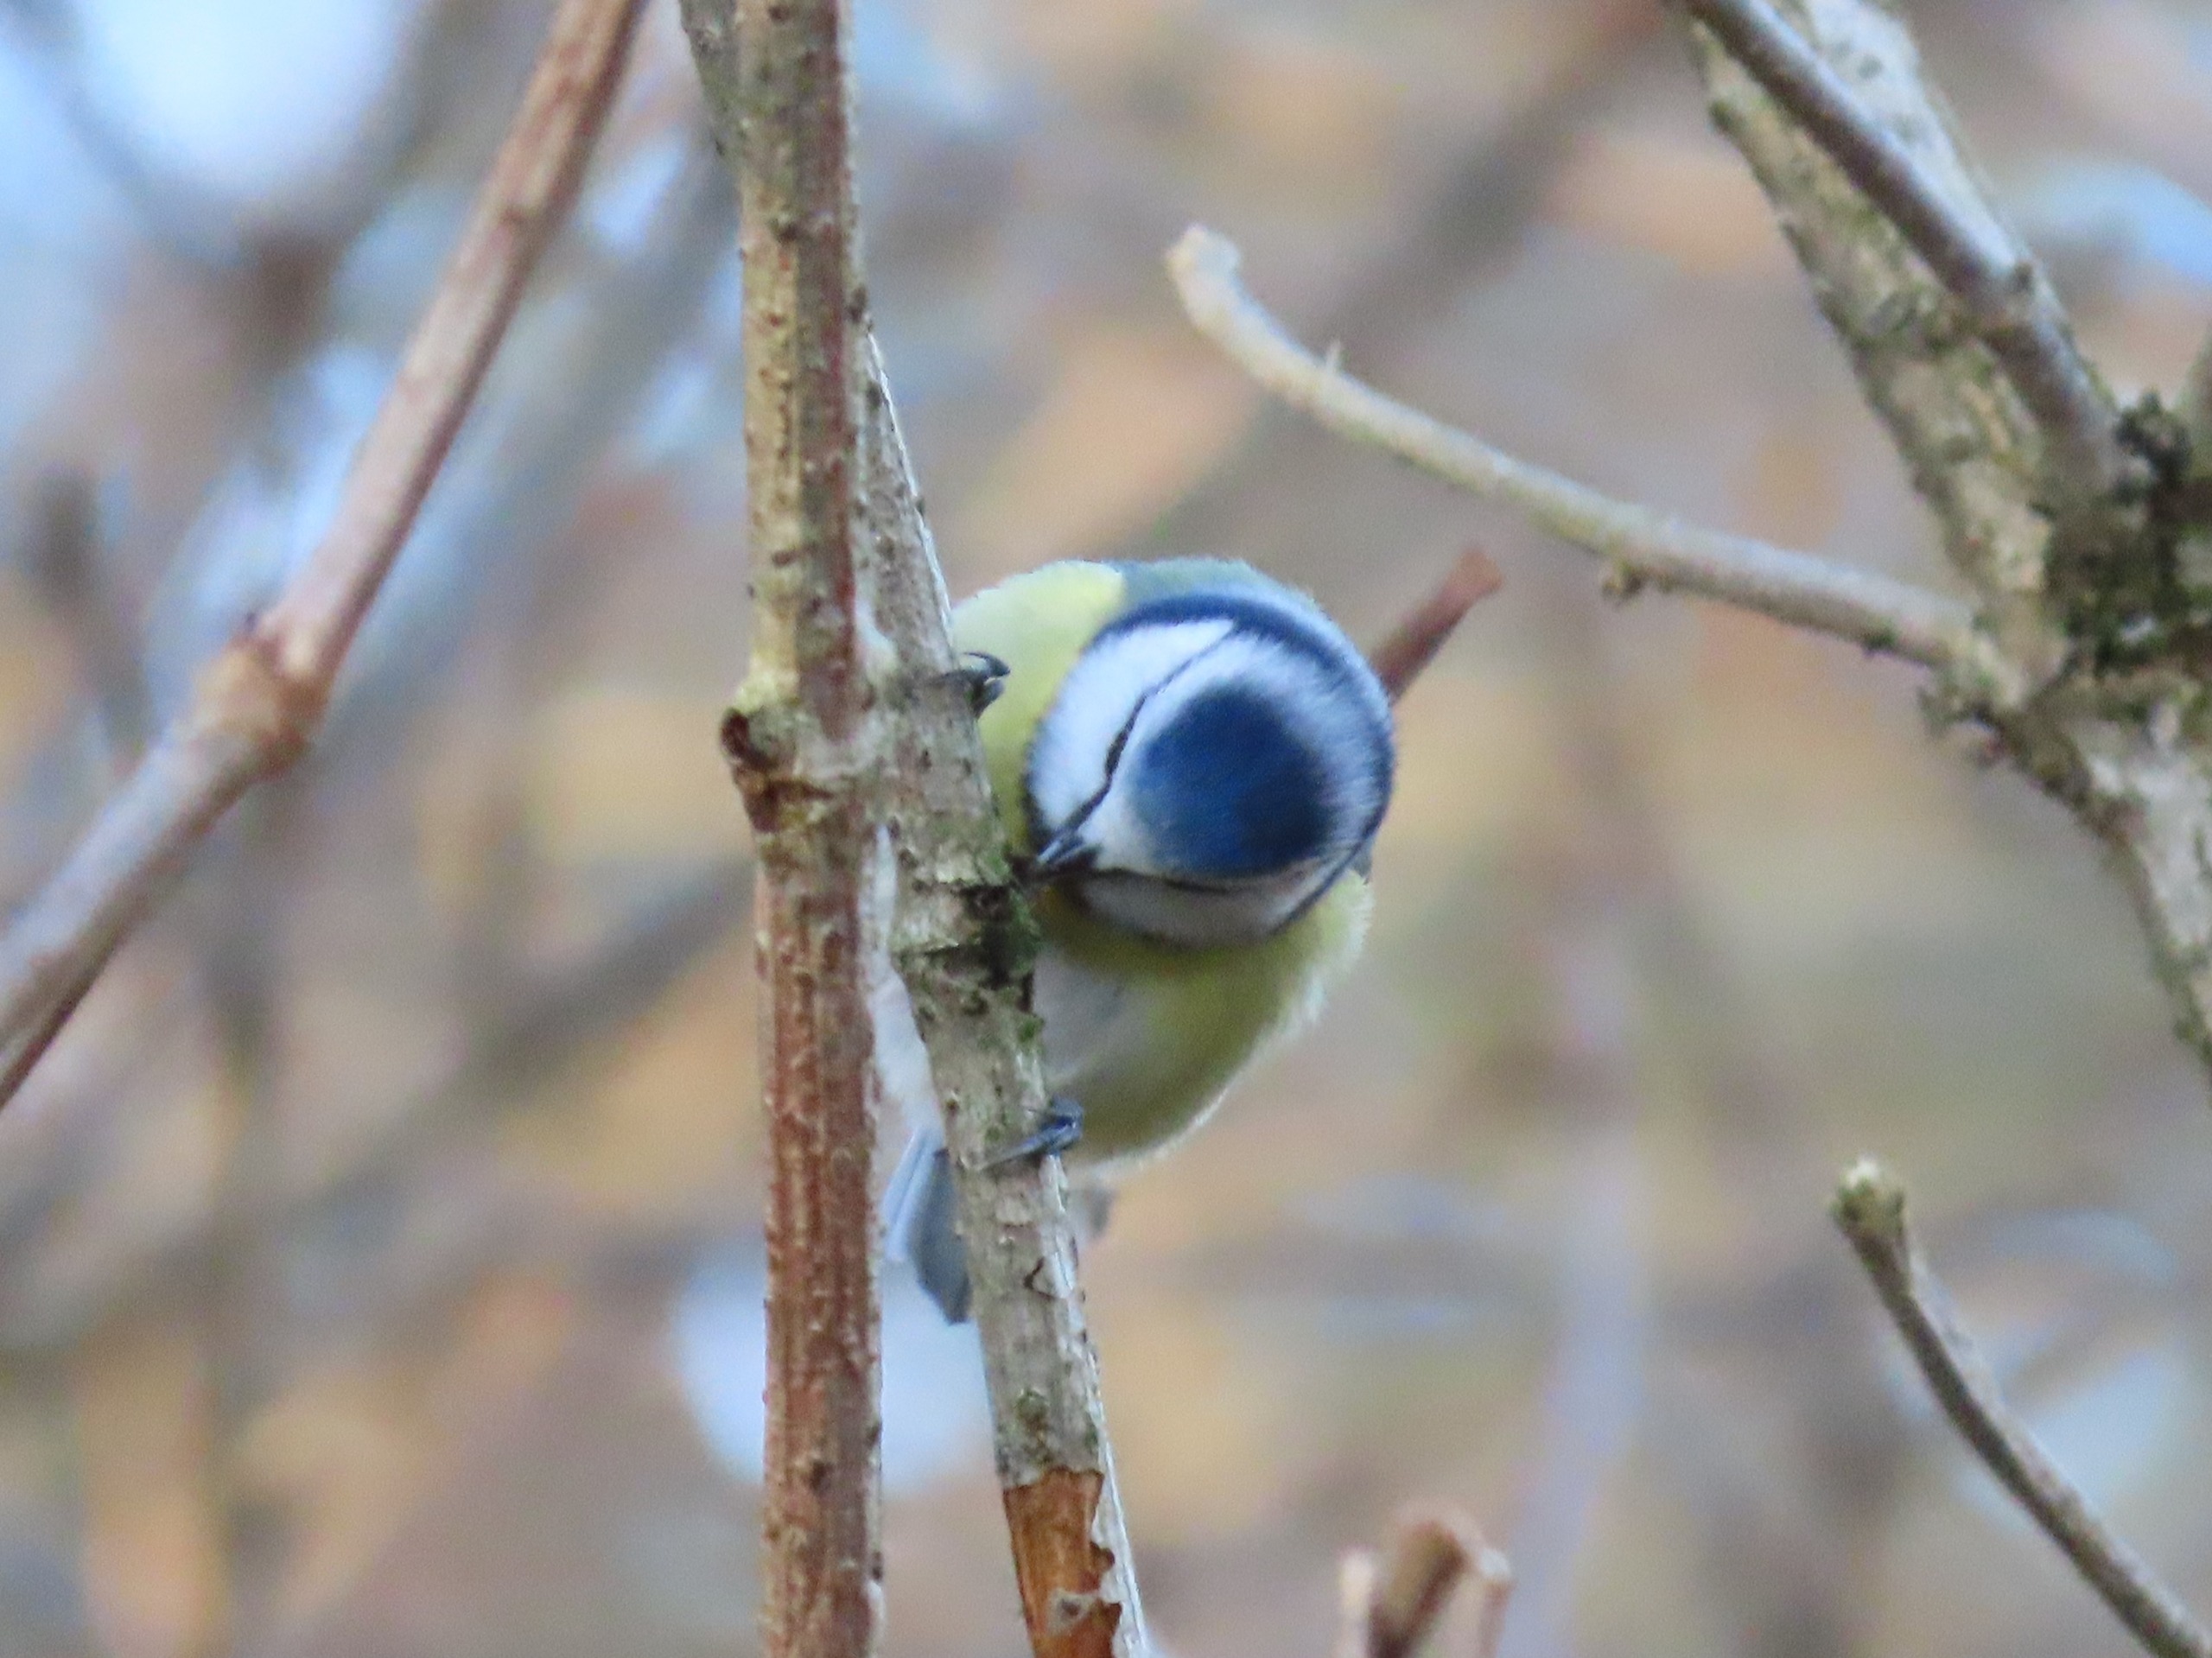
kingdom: Animalia
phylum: Chordata
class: Aves
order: Passeriformes
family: Paridae
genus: Cyanistes
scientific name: Cyanistes caeruleus
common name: Blåmejse
